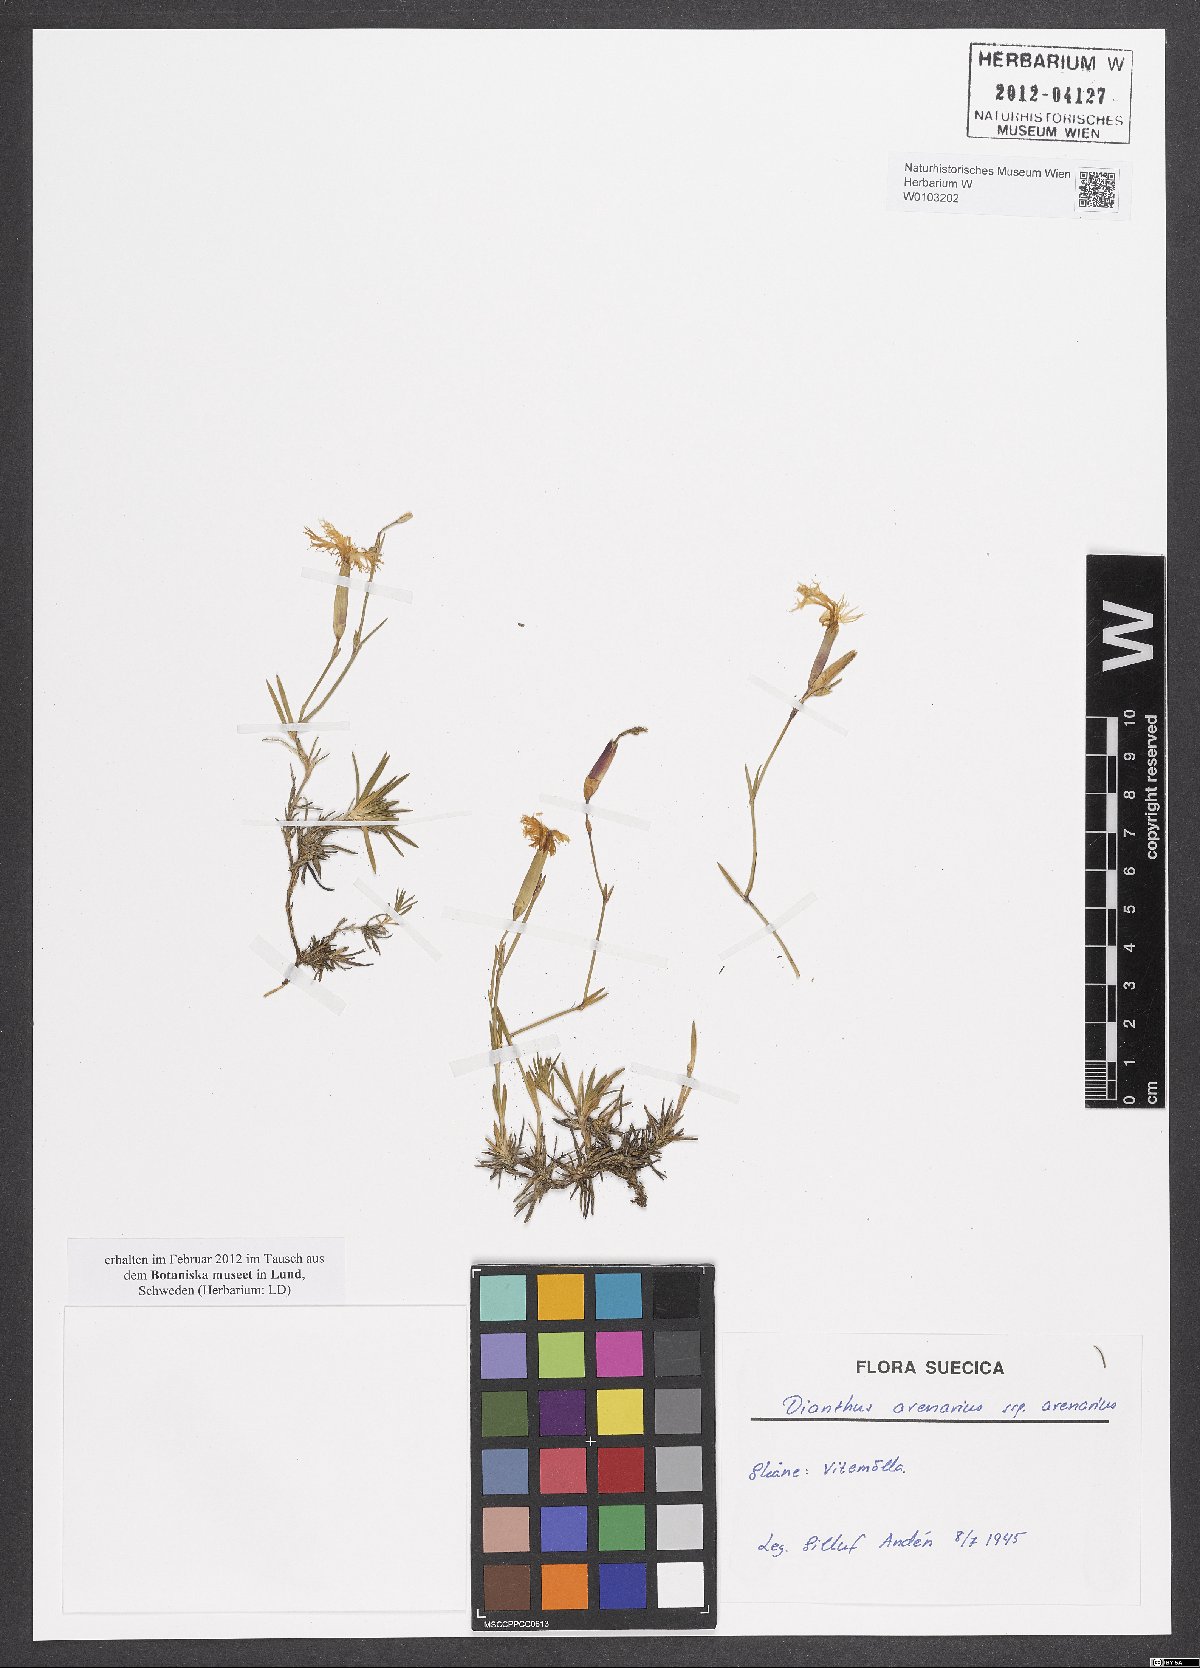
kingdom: Plantae
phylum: Tracheophyta
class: Magnoliopsida
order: Caryophyllales
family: Caryophyllaceae
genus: Dianthus
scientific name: Dianthus arenarius
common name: Stone pink
